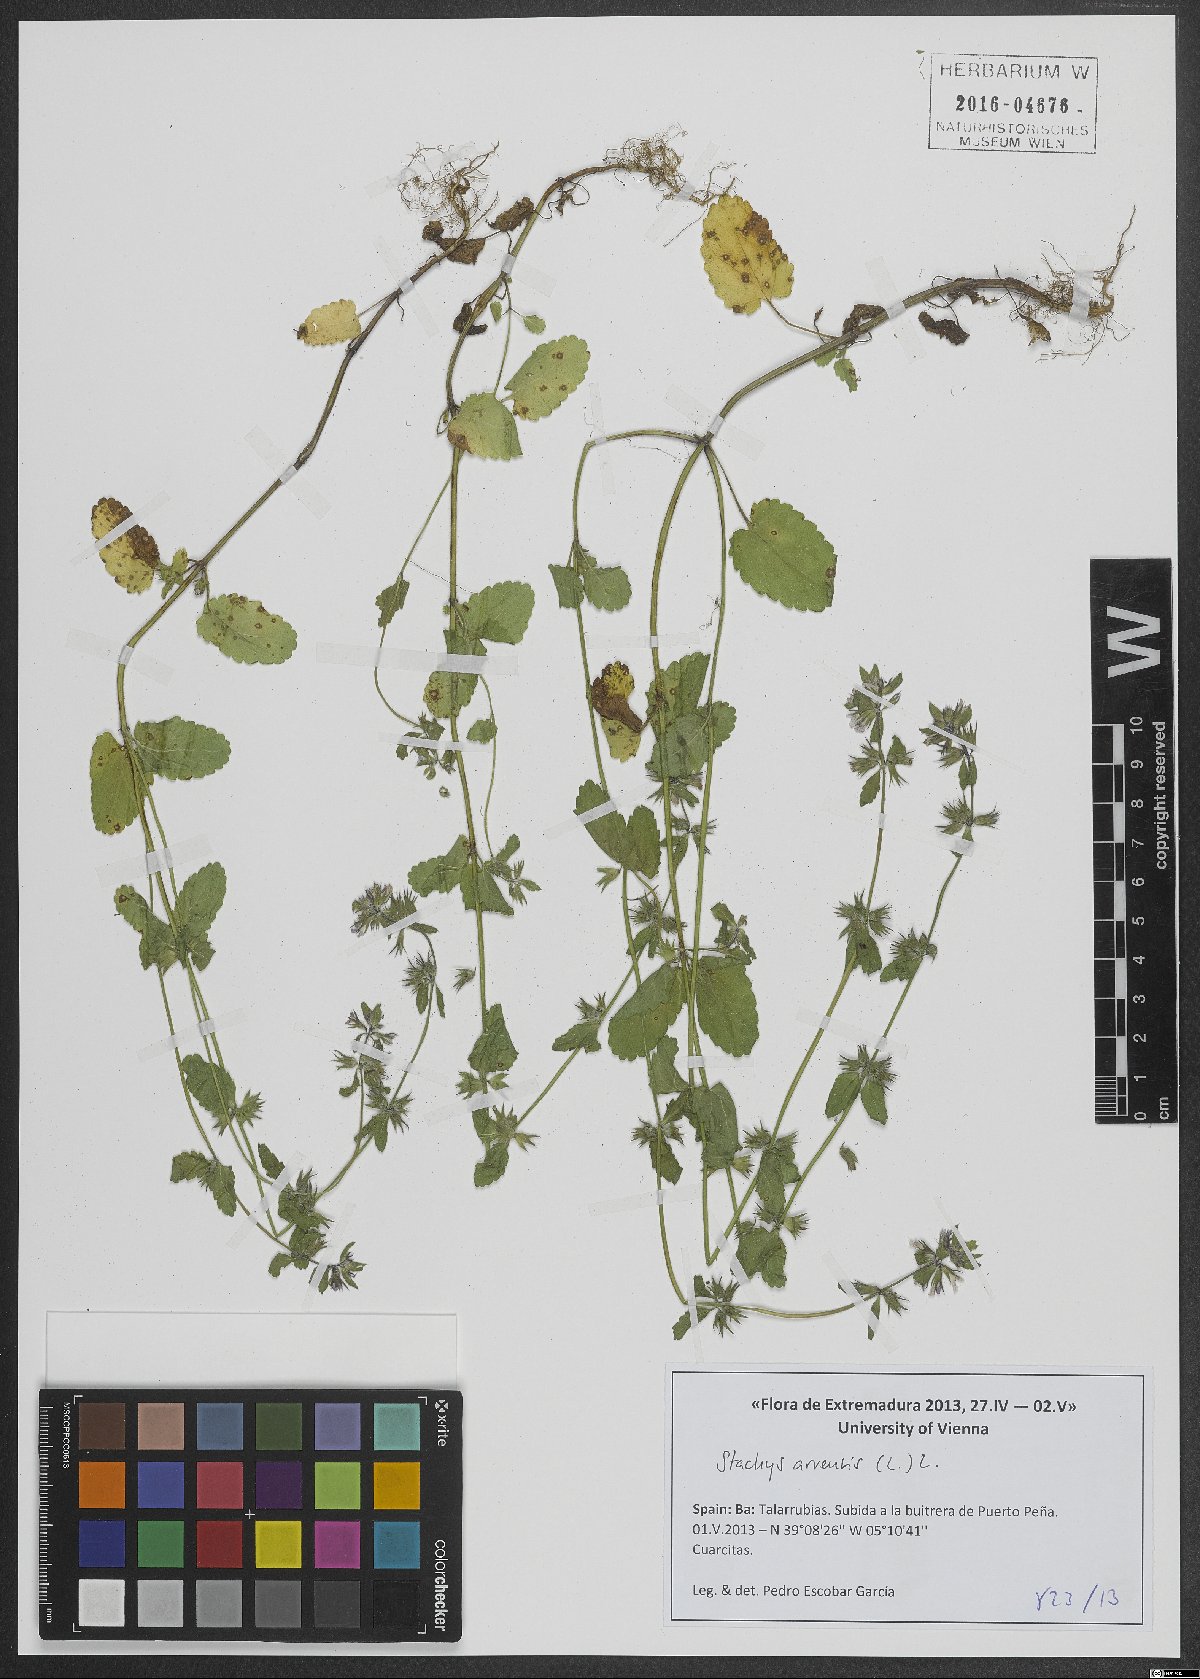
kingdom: Plantae
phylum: Tracheophyta
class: Magnoliopsida
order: Lamiales
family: Lamiaceae
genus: Stachys
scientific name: Stachys arvensis
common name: Field woundwort
